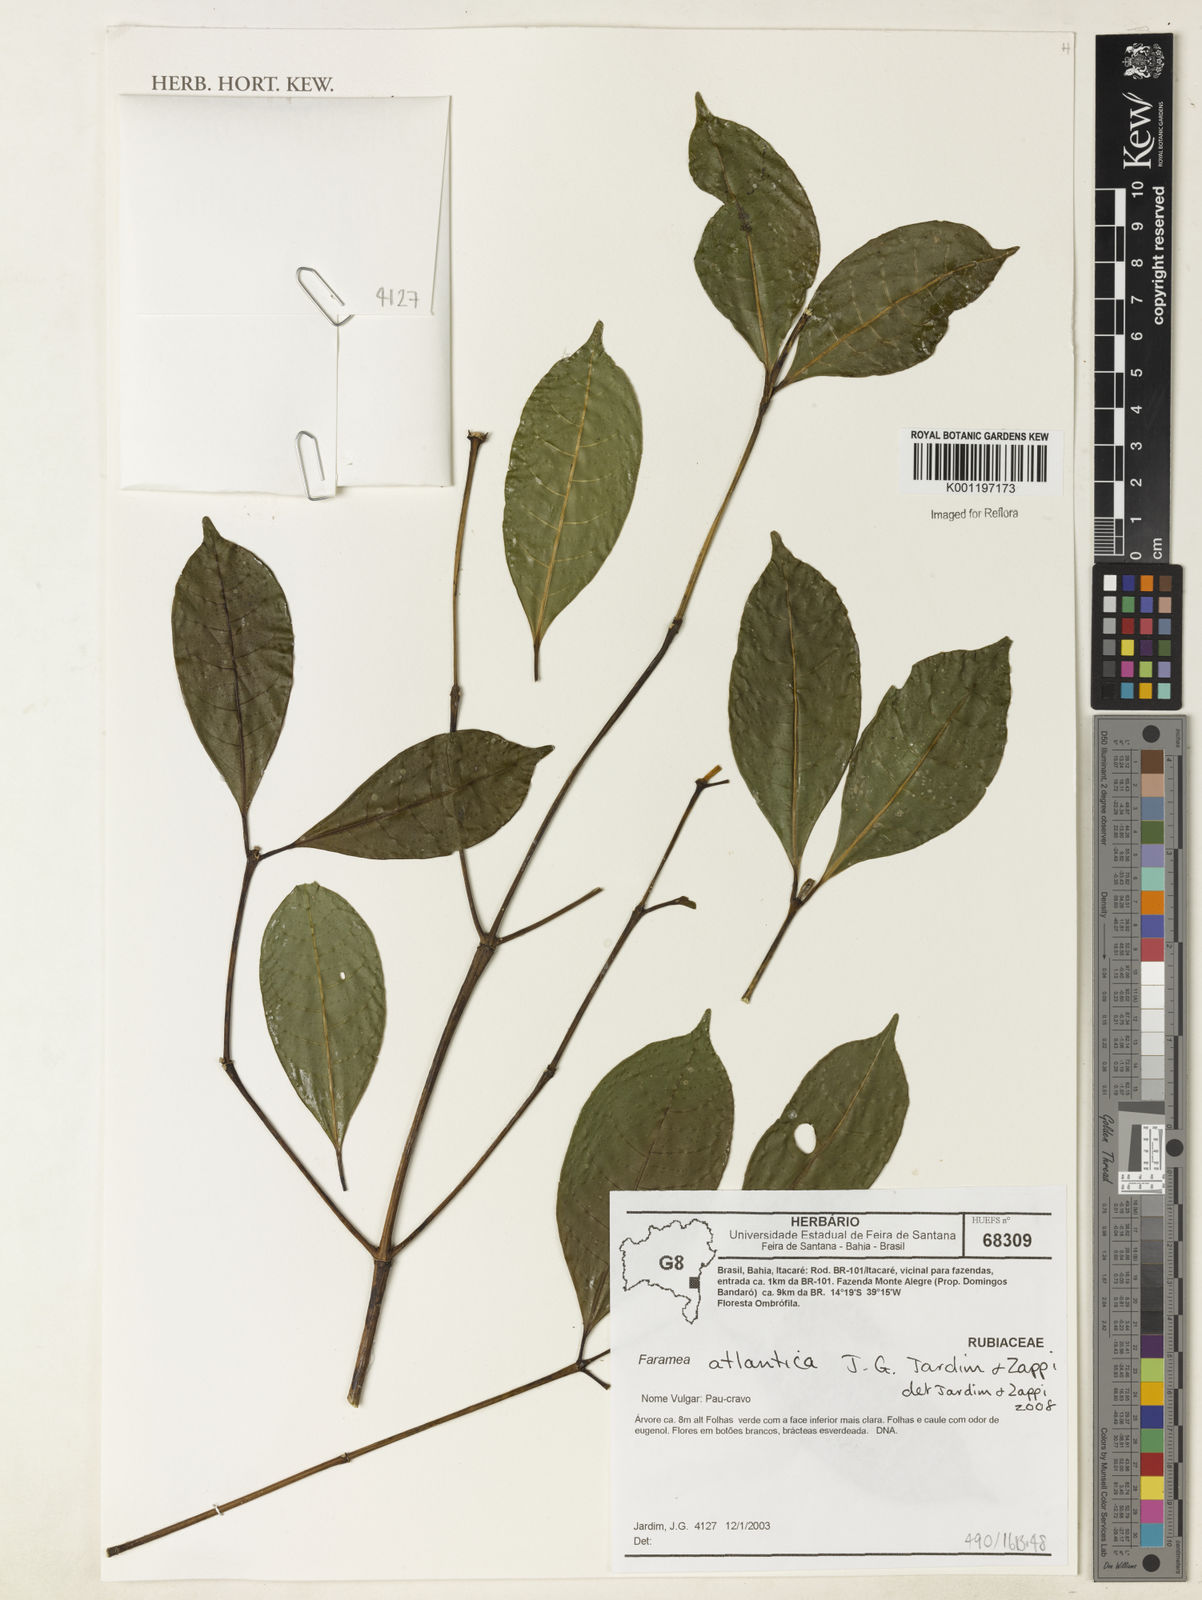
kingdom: Plantae
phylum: Tracheophyta
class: Magnoliopsida
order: Gentianales
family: Rubiaceae
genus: Faramea
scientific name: Faramea atlantica
